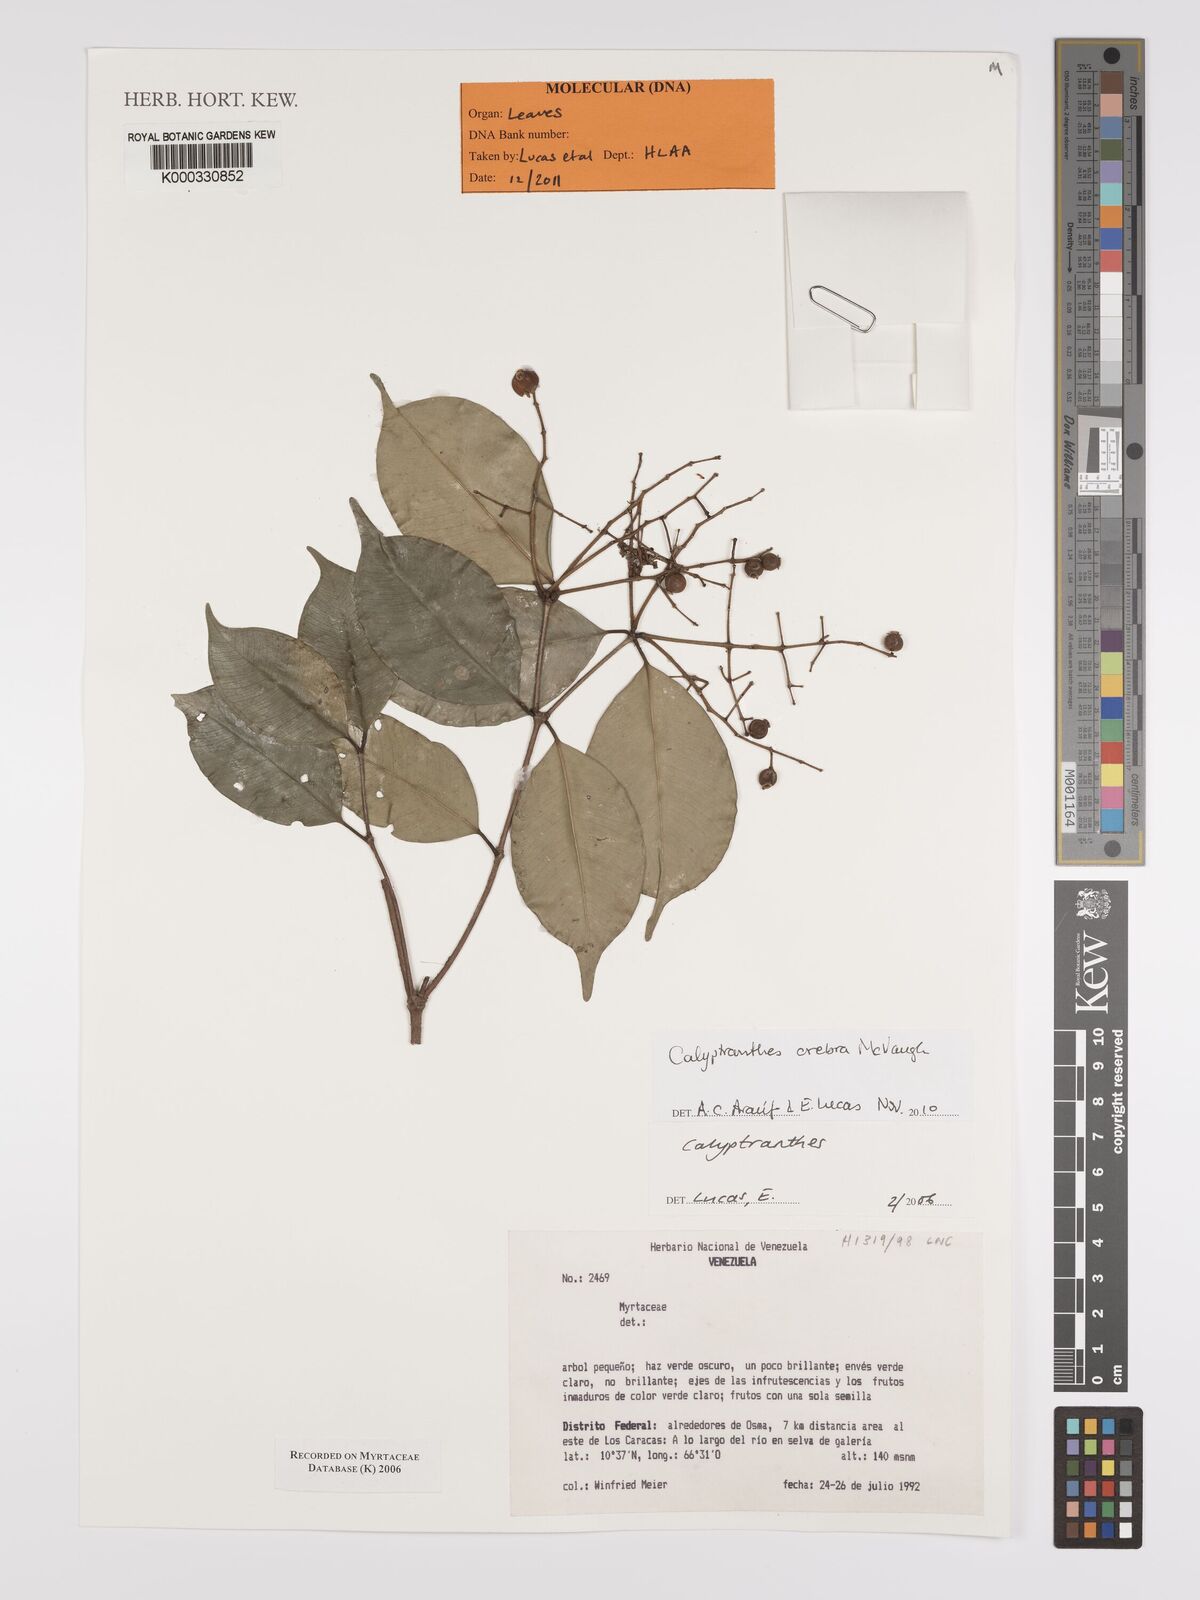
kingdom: Plantae
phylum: Tracheophyta
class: Magnoliopsida
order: Myrtales
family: Myrtaceae
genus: Calyptranthes
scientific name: Calyptranthes
